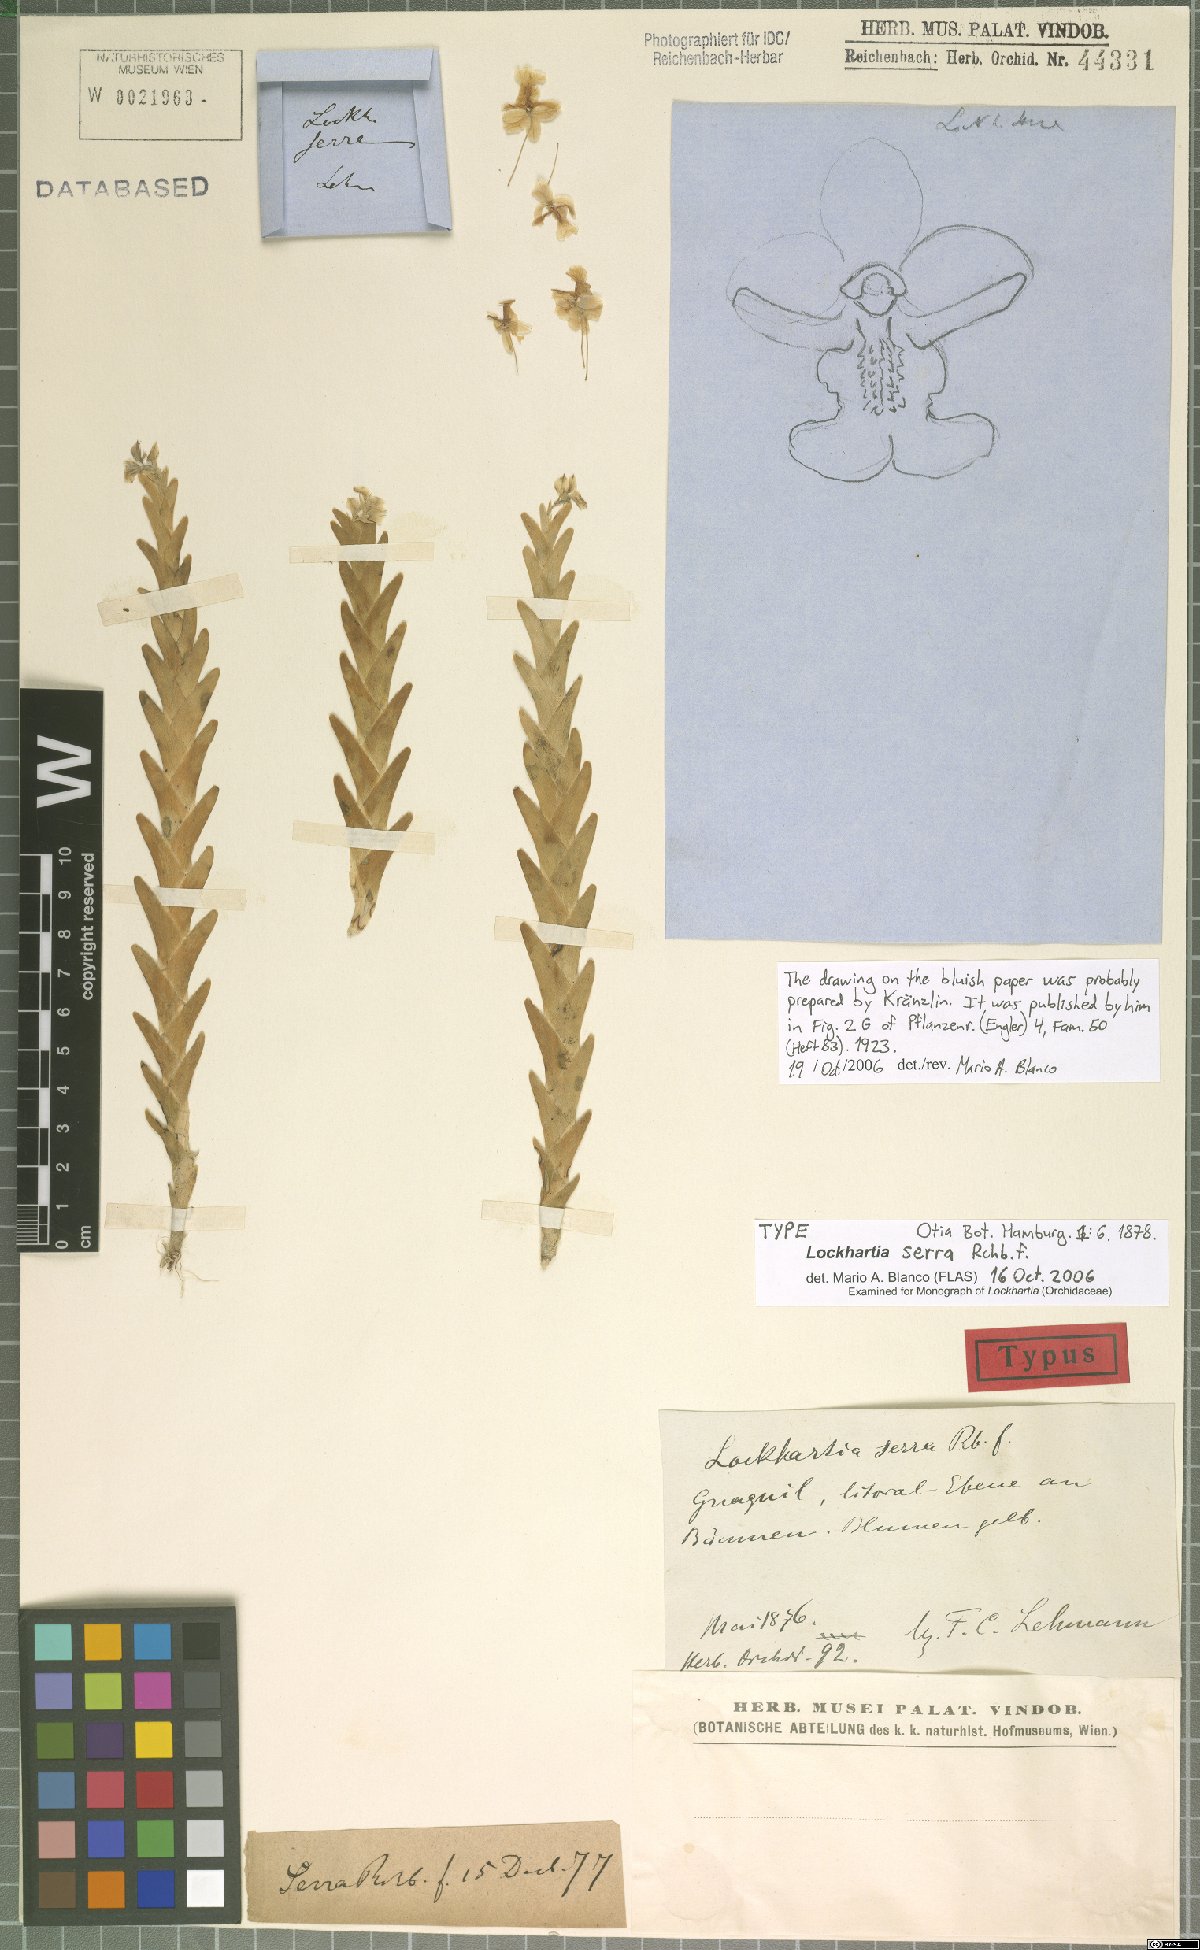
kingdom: Plantae
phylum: Tracheophyta
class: Liliopsida
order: Asparagales
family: Orchidaceae
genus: Lockhartia
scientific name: Lockhartia serra
